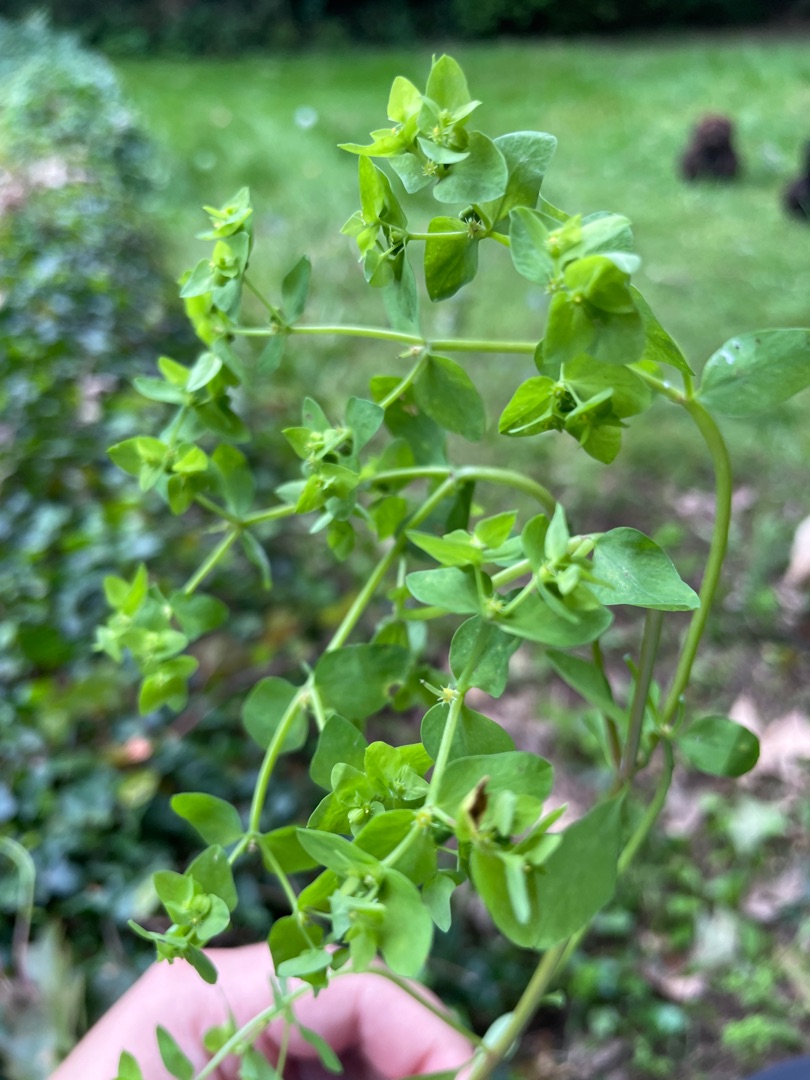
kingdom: Plantae
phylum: Tracheophyta
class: Magnoliopsida
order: Malpighiales
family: Euphorbiaceae
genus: Euphorbia
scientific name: Euphorbia peplus
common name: Gaffel-vortemælk
